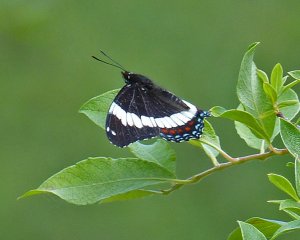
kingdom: Animalia
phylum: Arthropoda
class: Insecta
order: Lepidoptera
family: Nymphalidae
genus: Limenitis
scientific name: Limenitis arthemis
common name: Red-spotted Admiral
